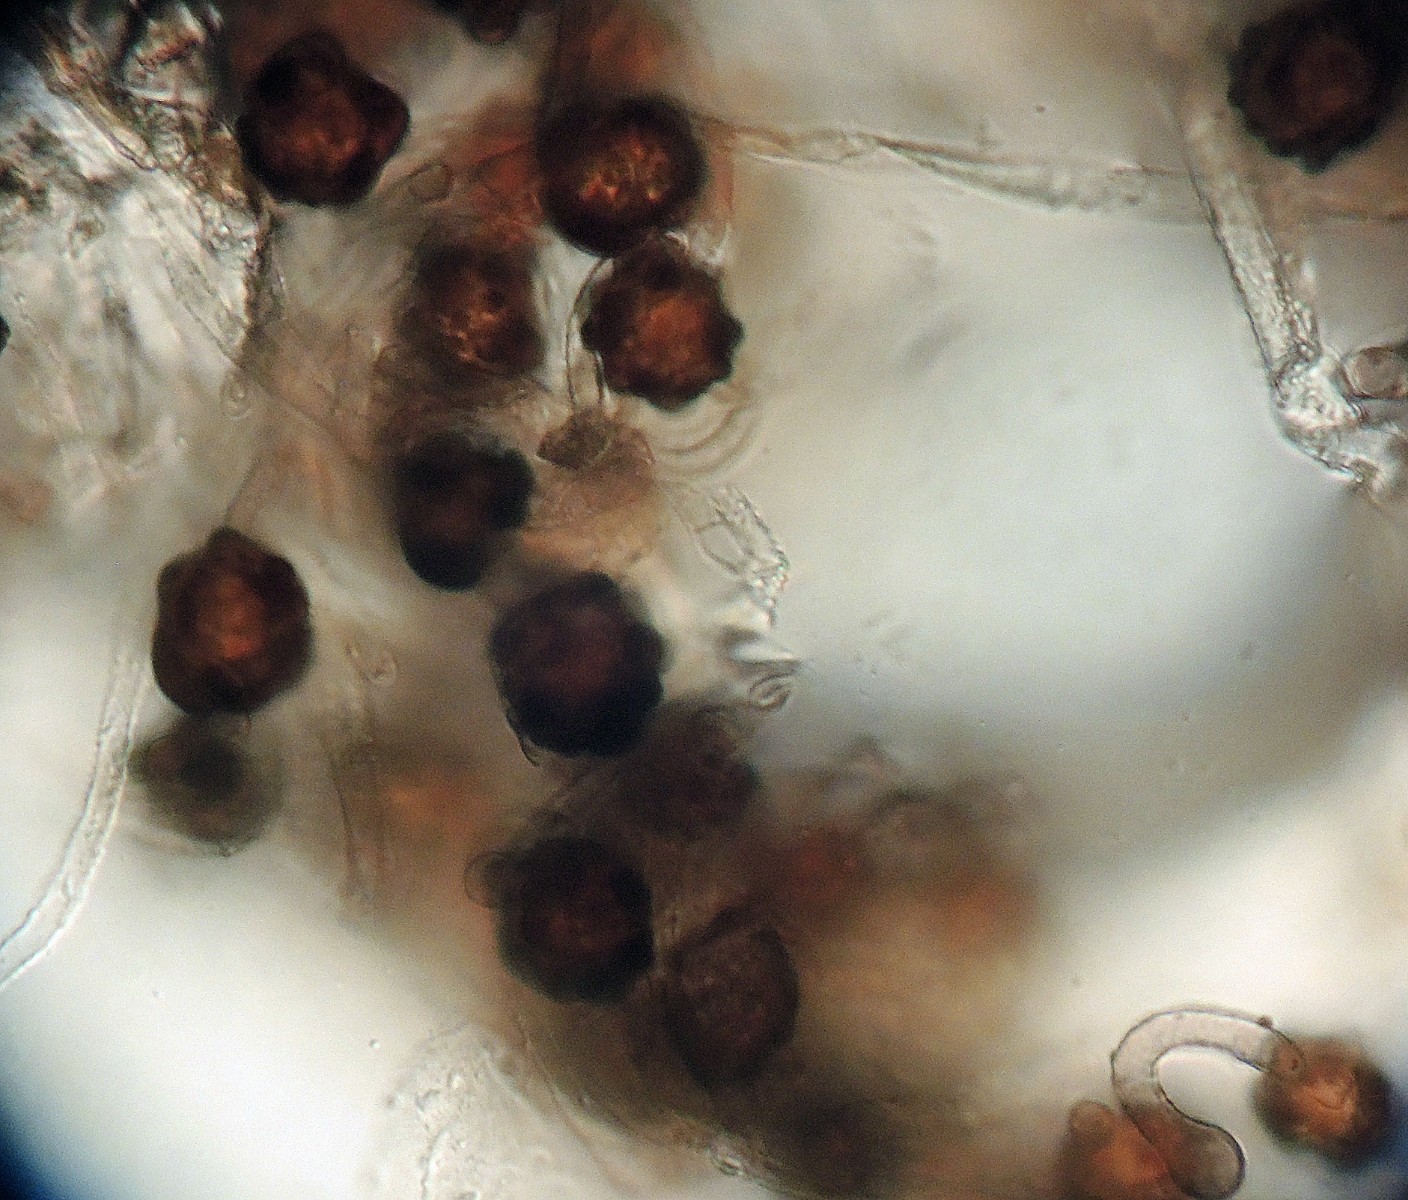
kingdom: Fungi
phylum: Basidiomycota
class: Agaricomycetes
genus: Trechinothus
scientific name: Trechinothus smardae
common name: krathinde
